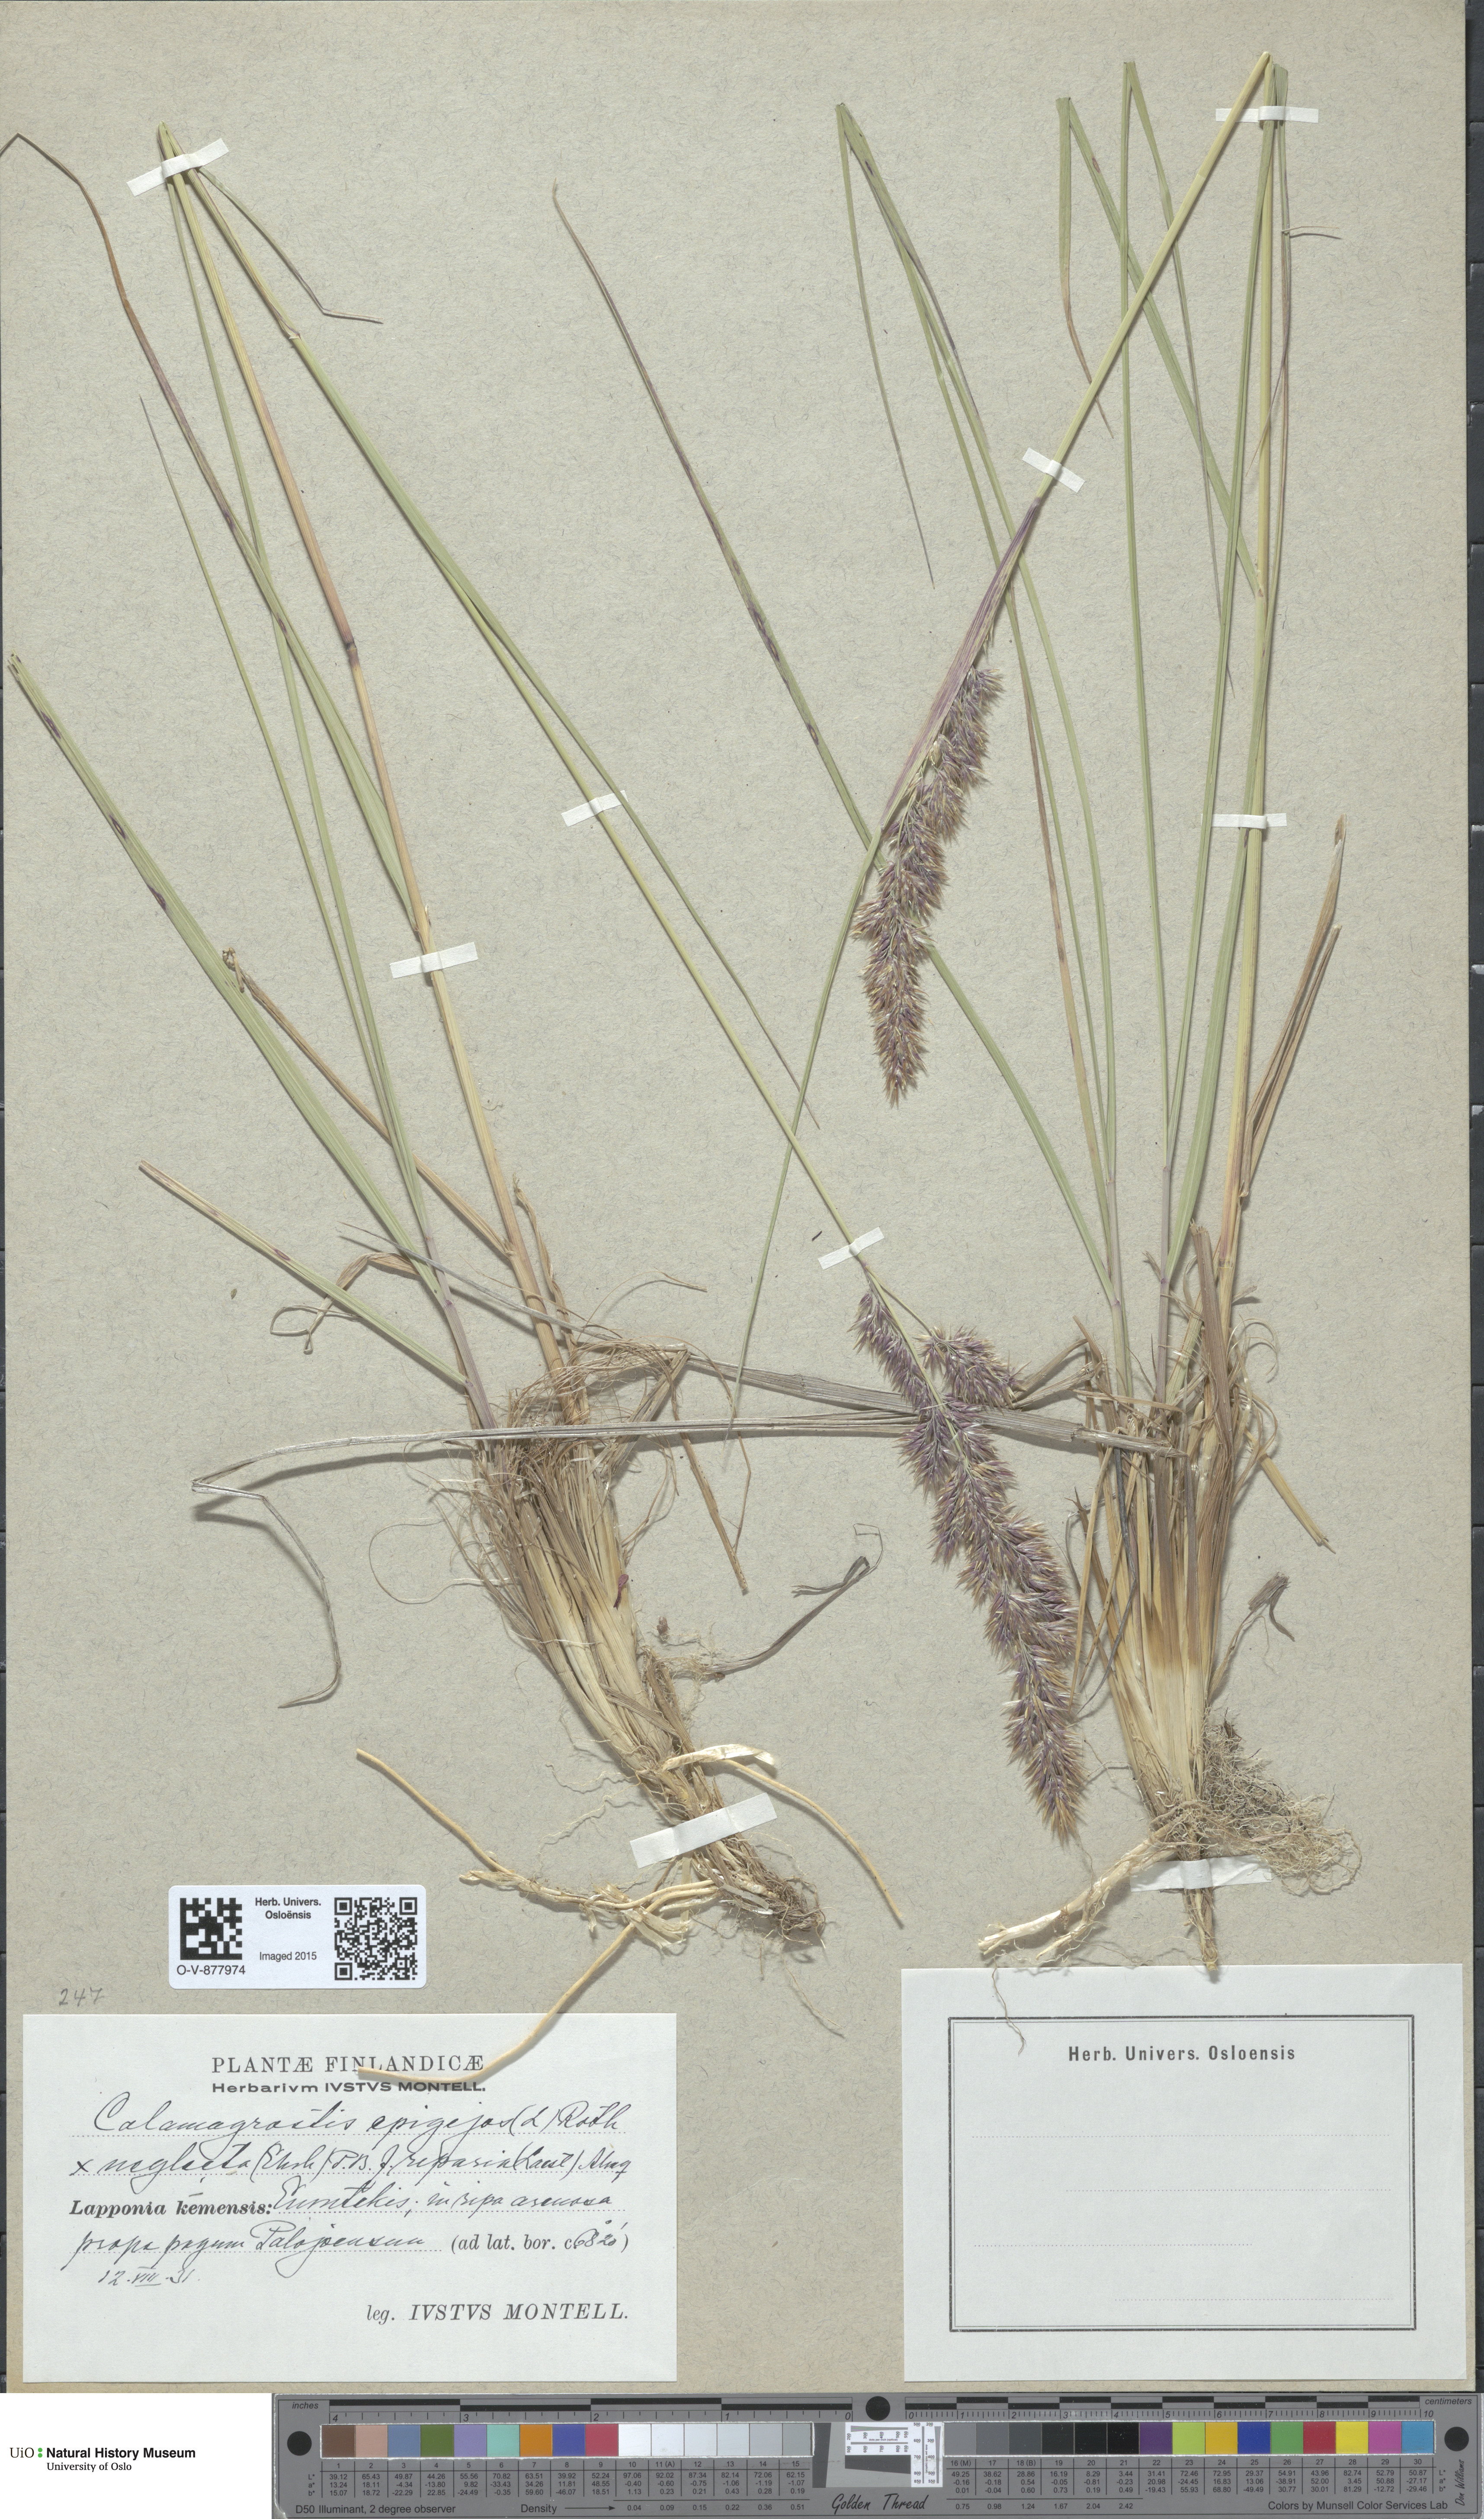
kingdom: Plantae
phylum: Tracheophyta
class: Liliopsida
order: Poales
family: Poaceae
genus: Calamagrostis
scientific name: Calamagrostis
